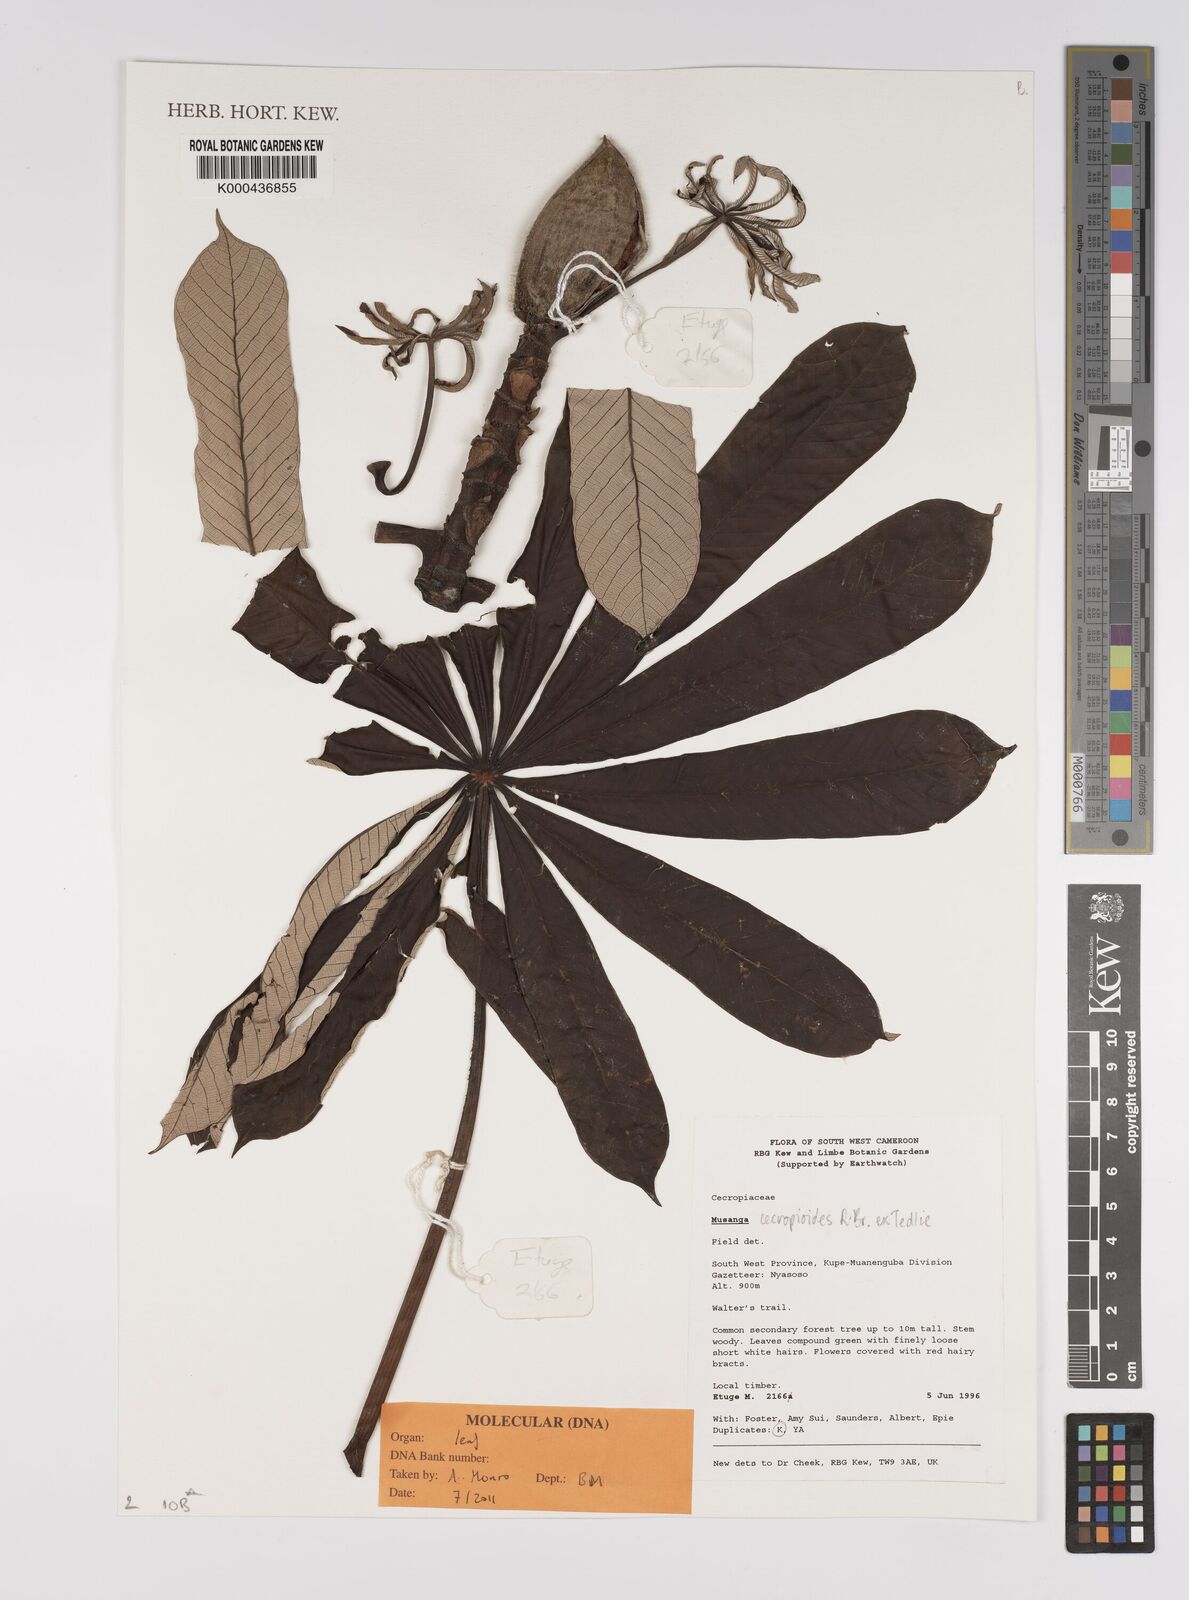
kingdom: Plantae
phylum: Tracheophyta
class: Magnoliopsida
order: Rosales
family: Urticaceae
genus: Musanga
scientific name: Musanga cecropioides
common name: African corkwood
